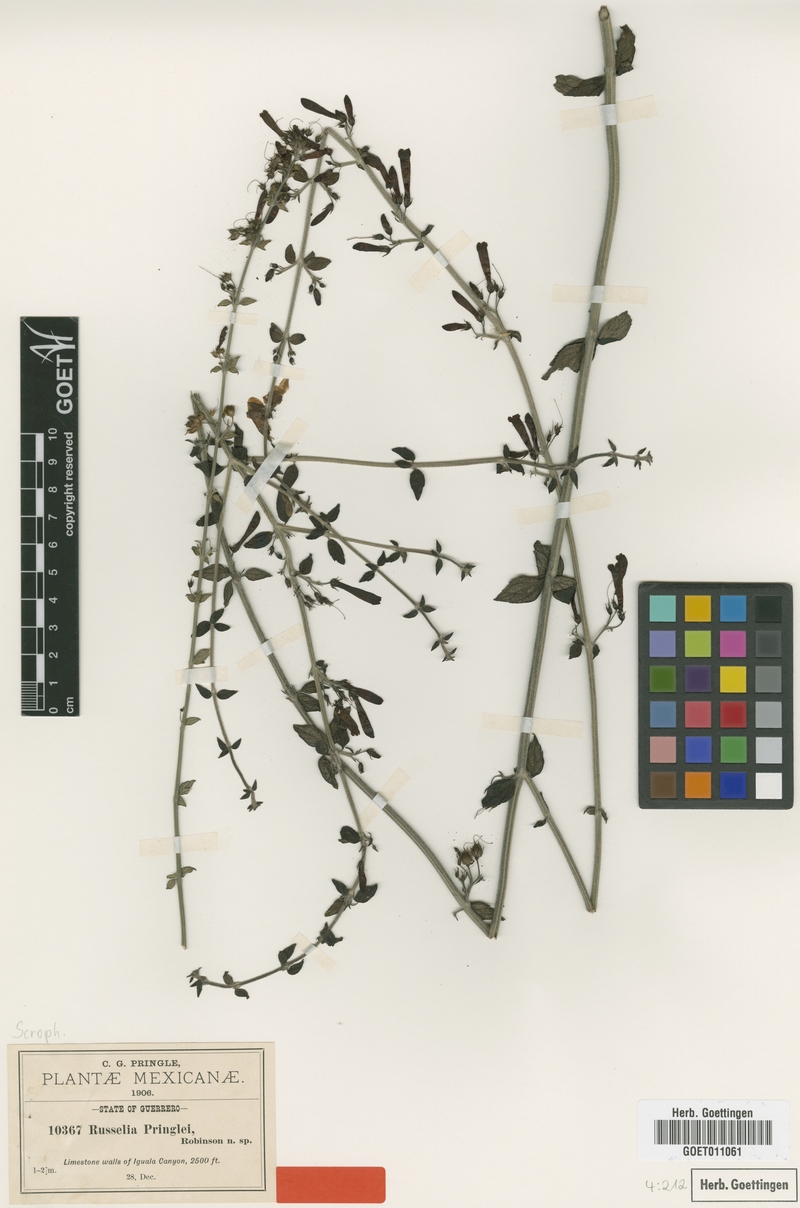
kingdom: Plantae
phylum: Tracheophyta
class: Magnoliopsida
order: Lamiales
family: Plantaginaceae
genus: Russelia
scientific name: Russelia pringlei
